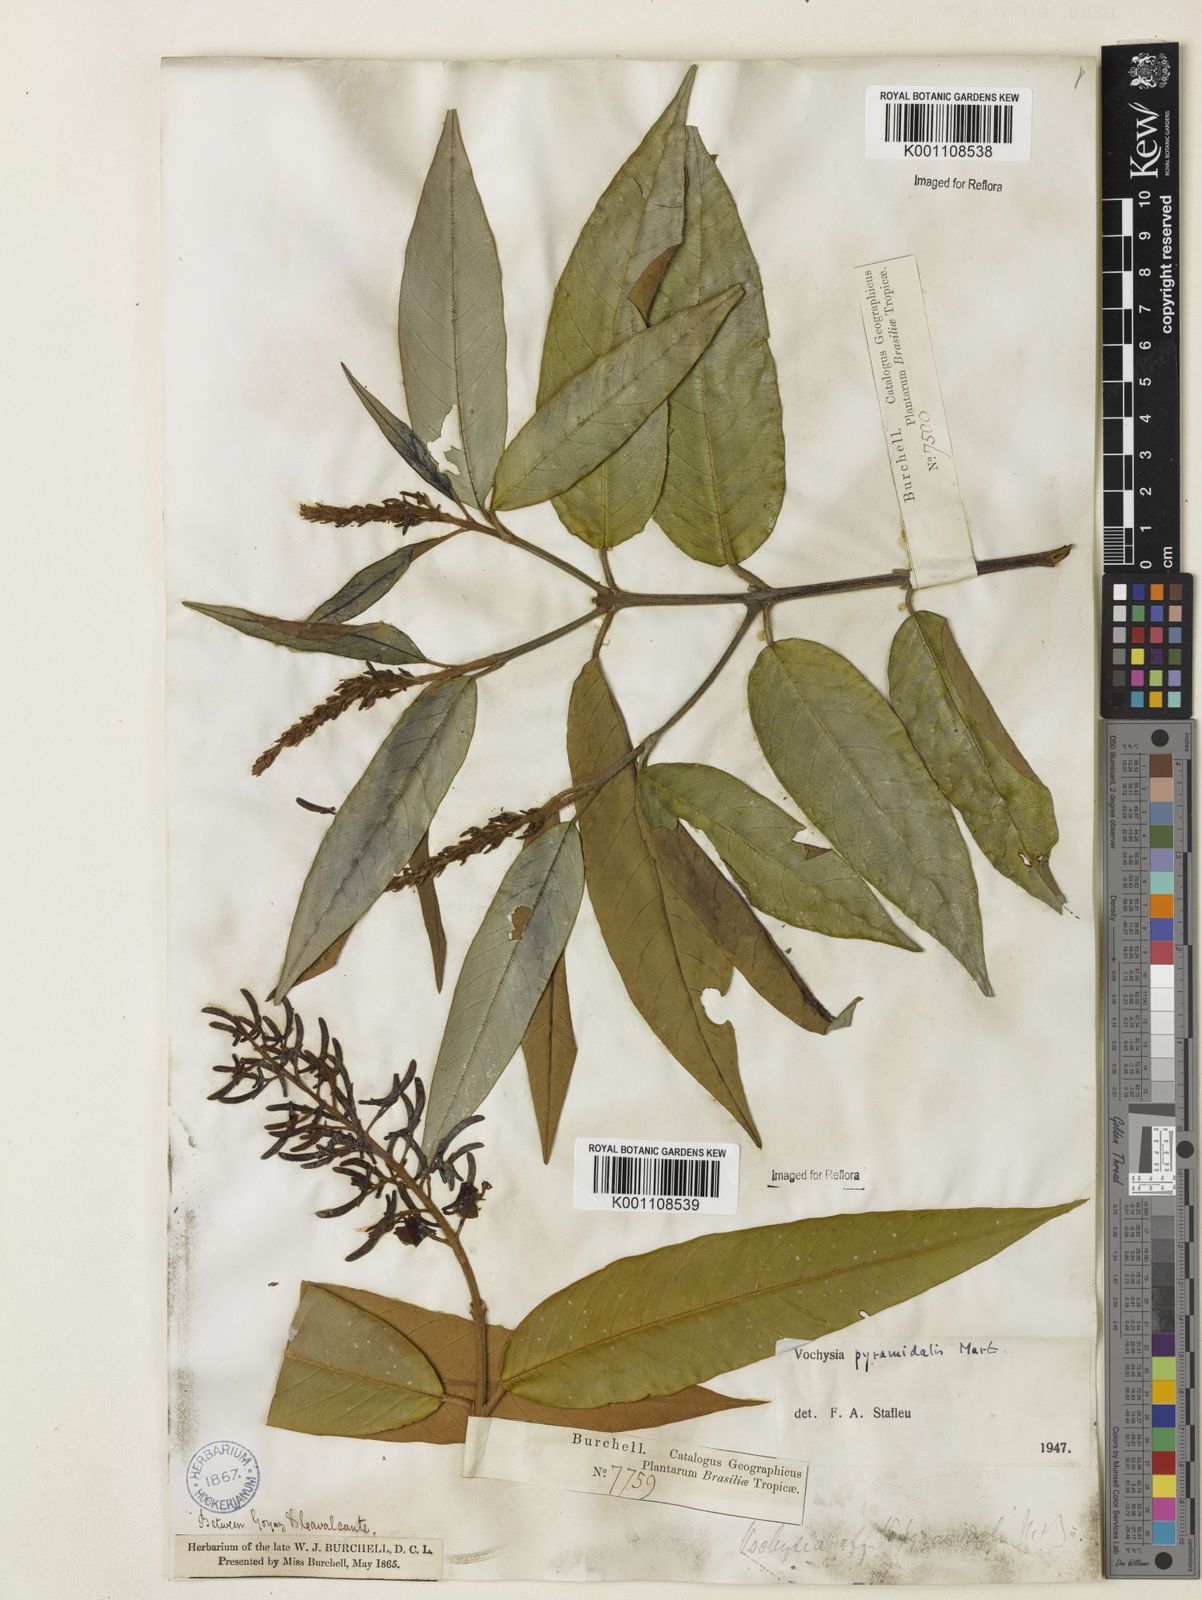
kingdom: Plantae
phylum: Tracheophyta
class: Magnoliopsida
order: Myrtales
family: Vochysiaceae
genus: Vochysia
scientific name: Vochysia pyramidalis
